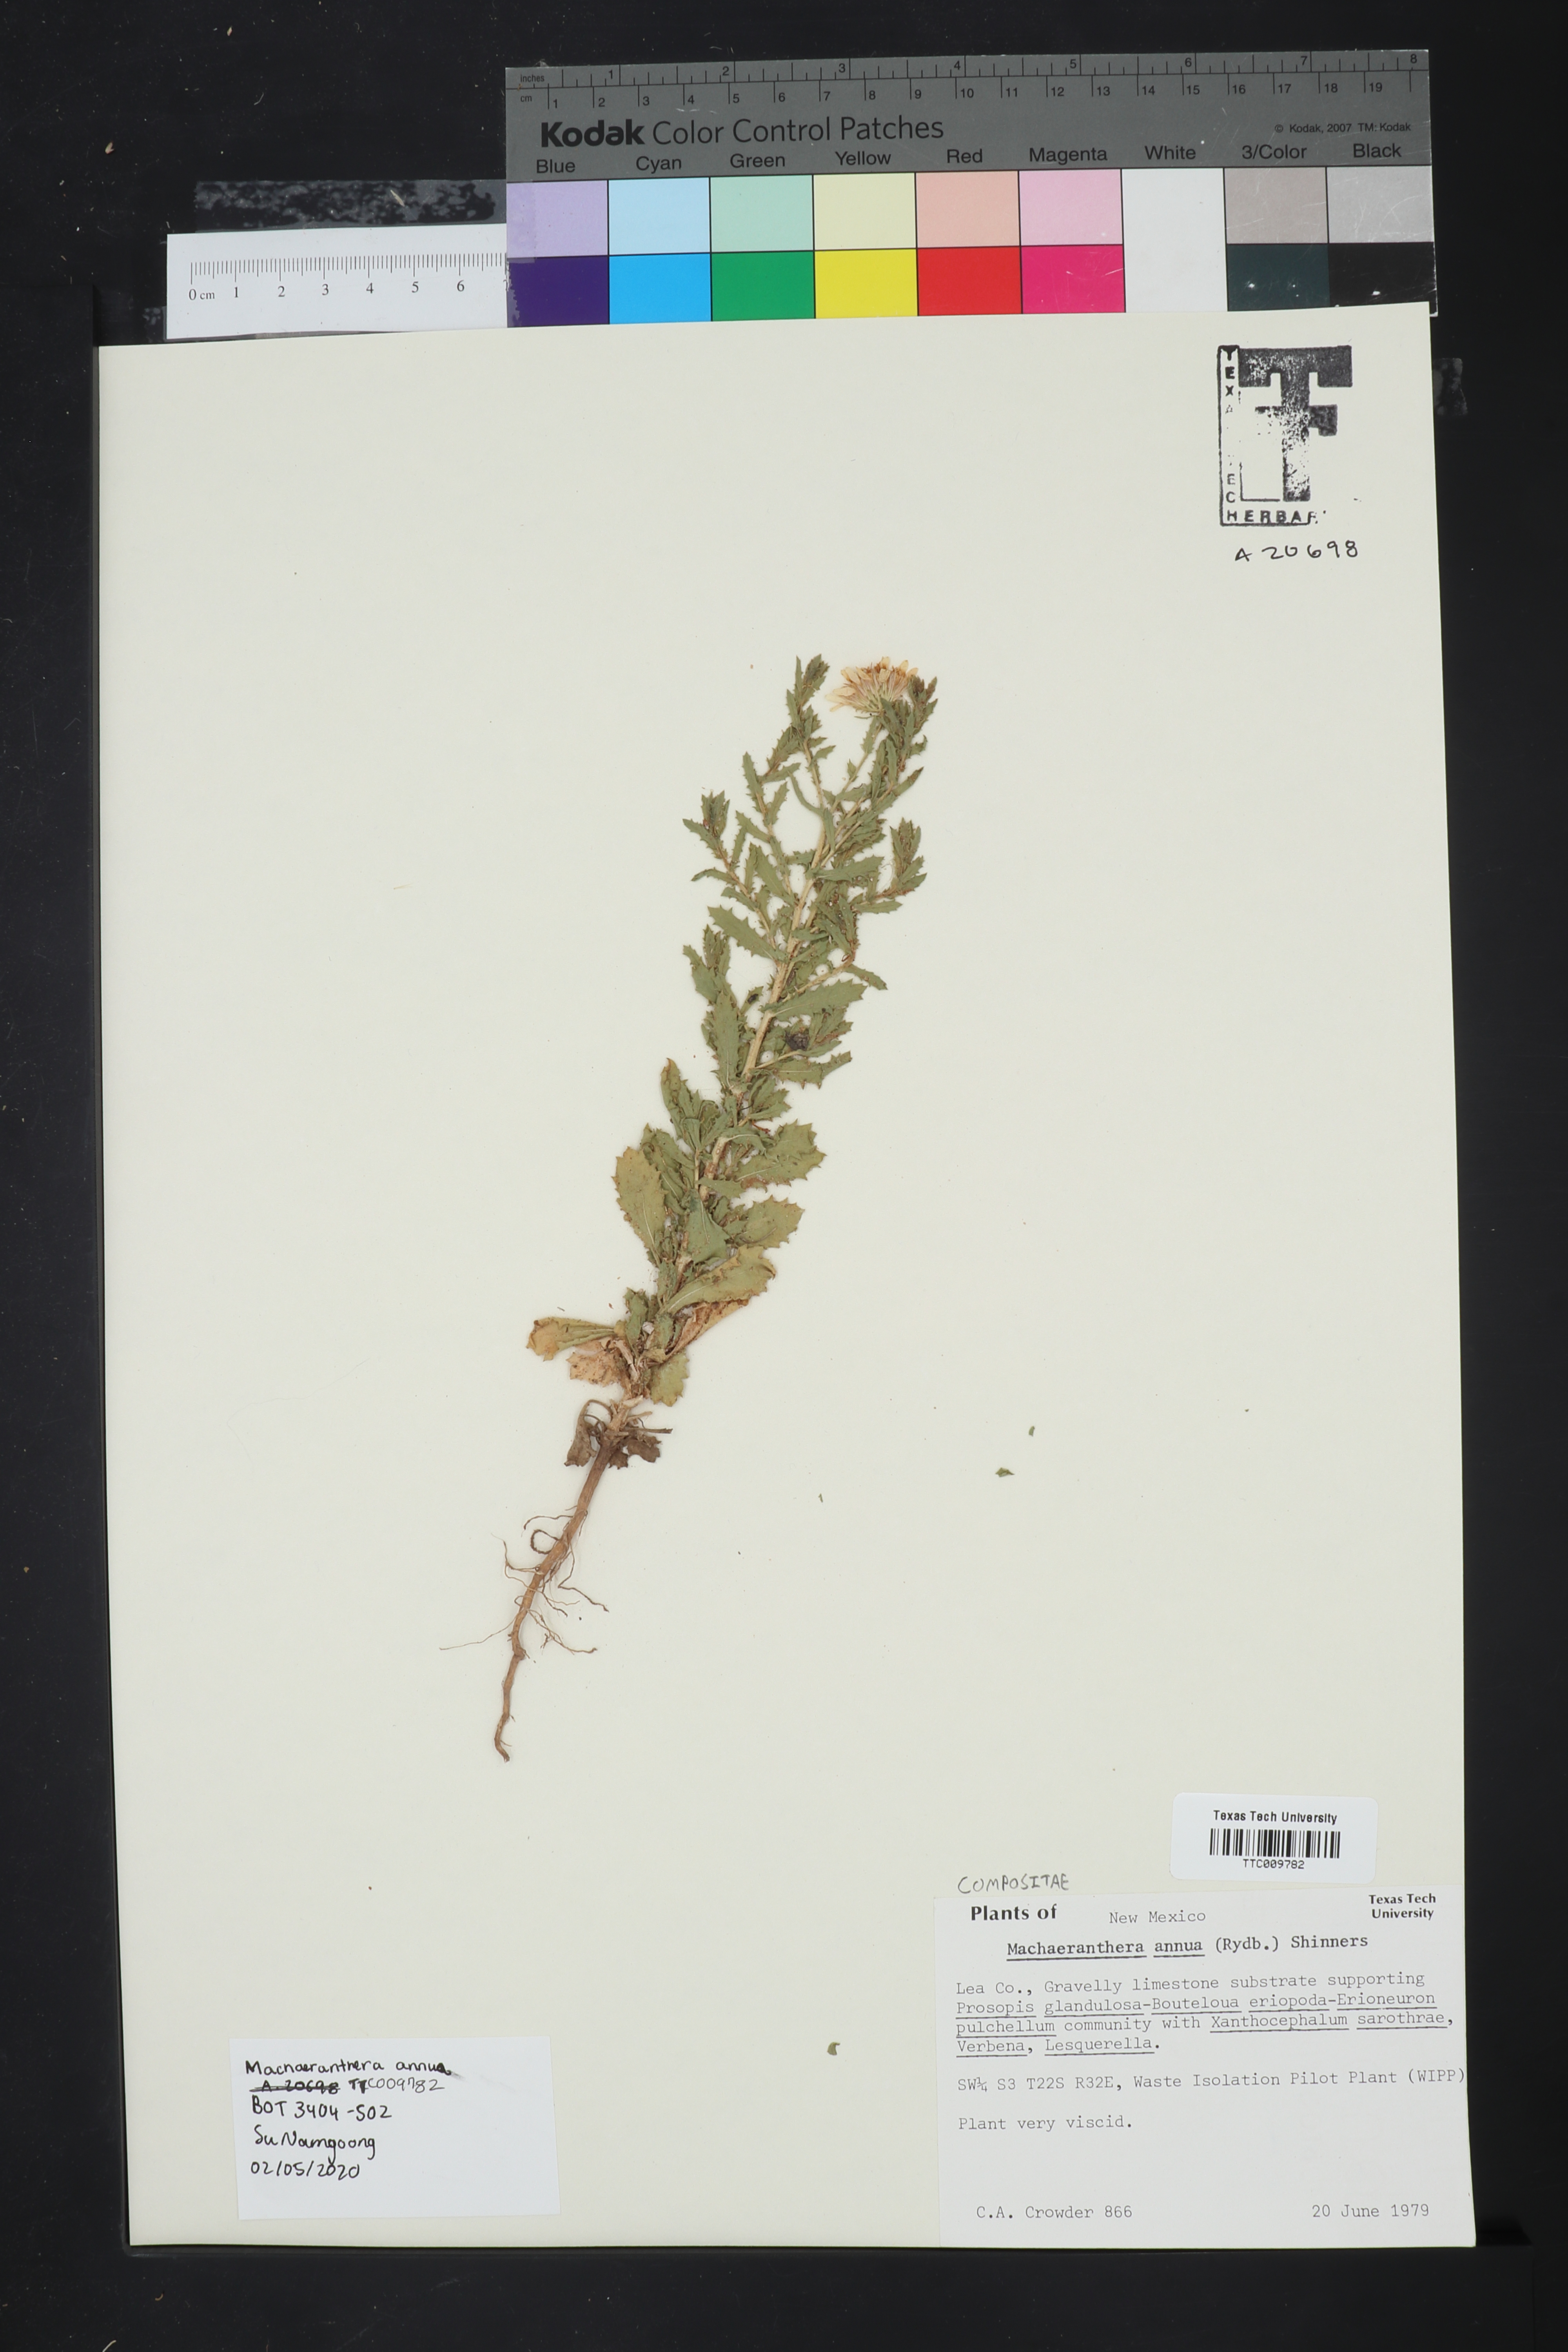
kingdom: Plantae
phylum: Tracheophyta
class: Magnoliopsida
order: Asterales
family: Asteraceae
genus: Rayjacksonia
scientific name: Rayjacksonia annua
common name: Viscid camphor daisy
